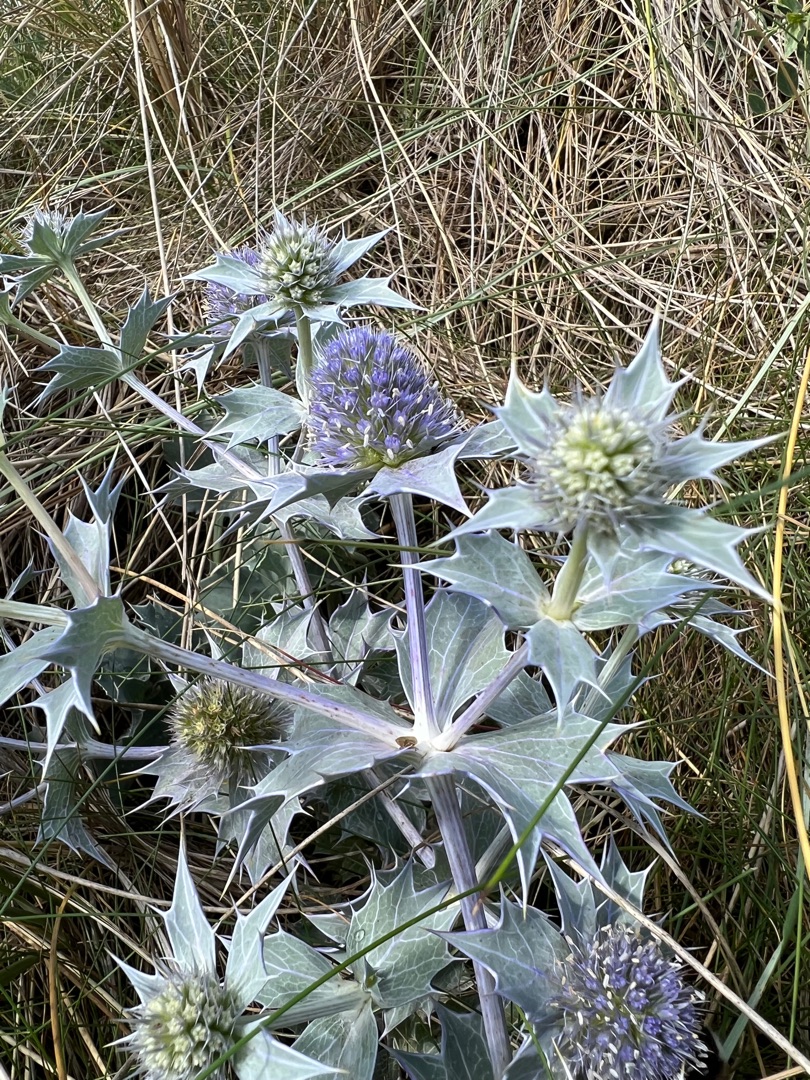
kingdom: Plantae
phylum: Tracheophyta
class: Magnoliopsida
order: Apiales
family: Apiaceae
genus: Eryngium
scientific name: Eryngium maritimum
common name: Strand-mandstro
